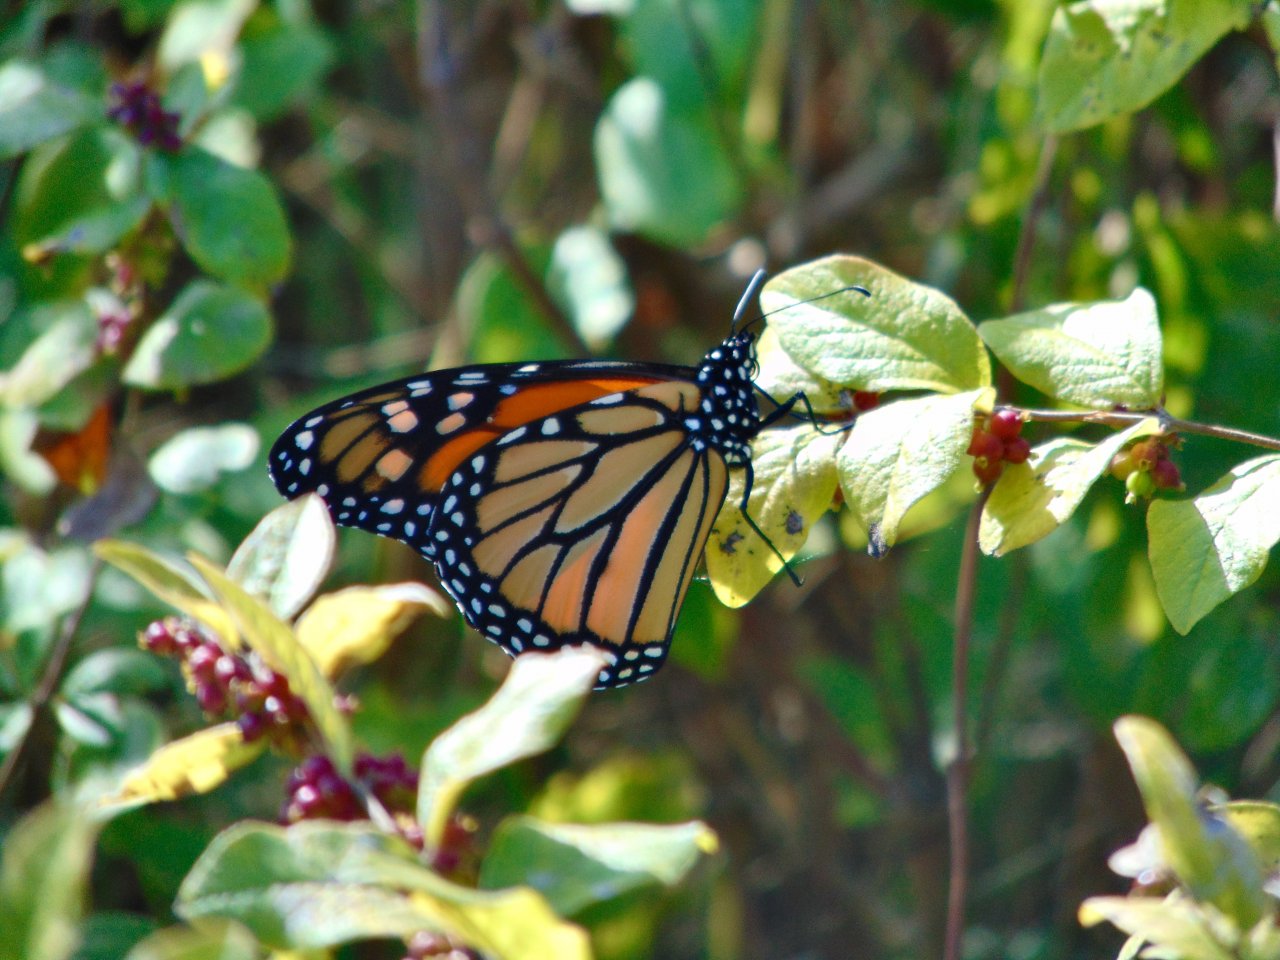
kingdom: Animalia
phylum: Arthropoda
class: Insecta
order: Lepidoptera
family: Nymphalidae
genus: Danaus
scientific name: Danaus plexippus
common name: Monarch
